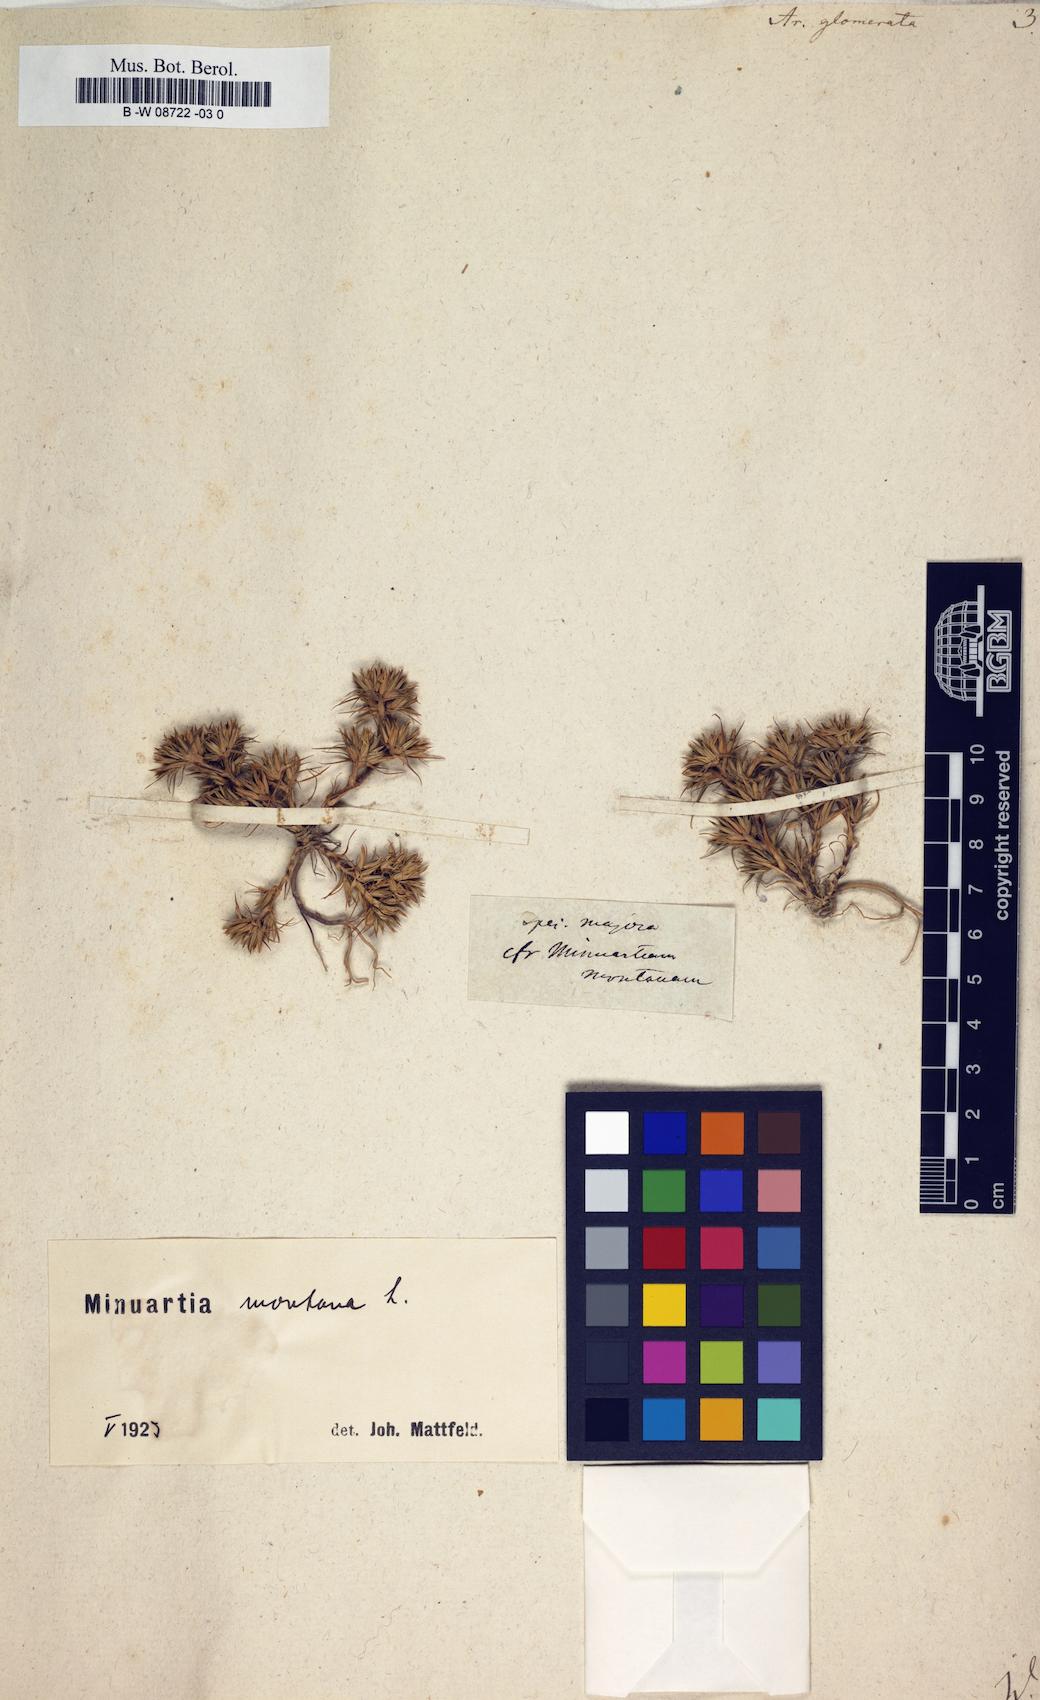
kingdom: Plantae
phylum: Tracheophyta
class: Magnoliopsida
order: Caryophyllales
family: Caryophyllaceae
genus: Minuartia
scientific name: Minuartia glomerata
